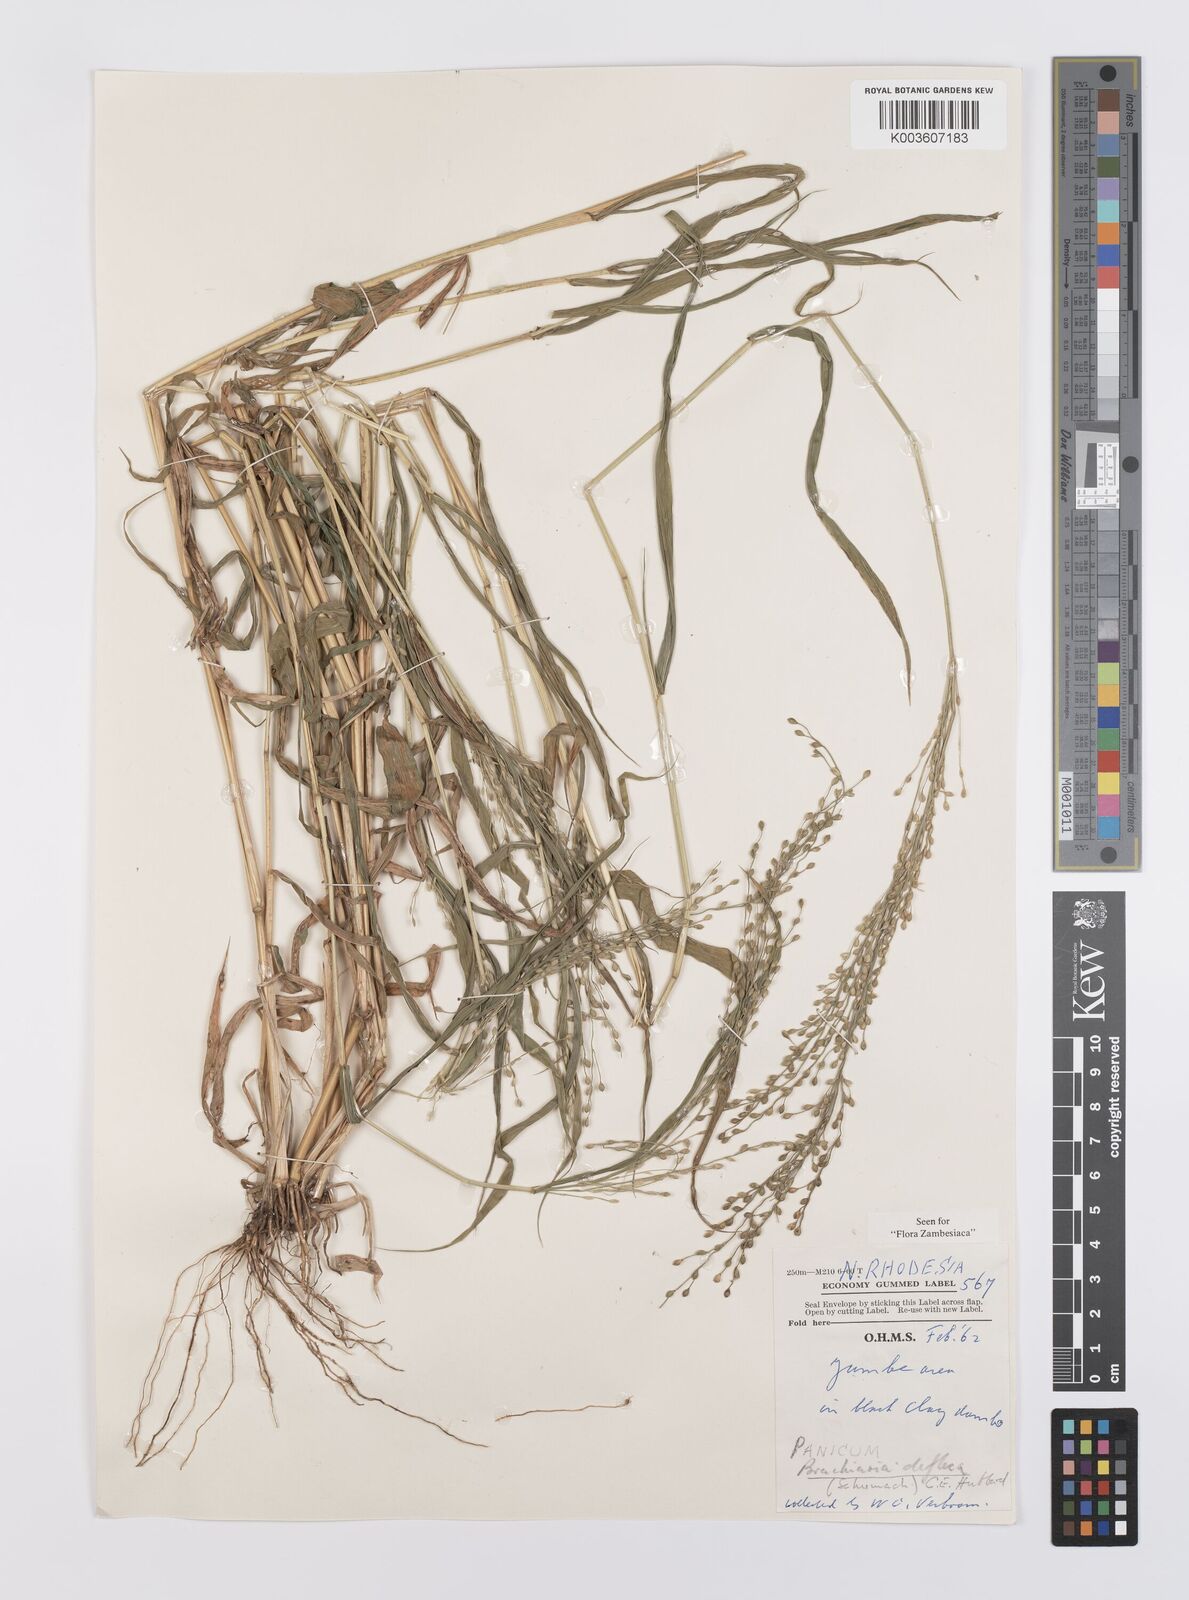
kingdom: Plantae
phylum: Tracheophyta
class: Liliopsida
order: Poales
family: Poaceae
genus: Urochloa
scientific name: Urochloa deflexa
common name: Guinea millet
